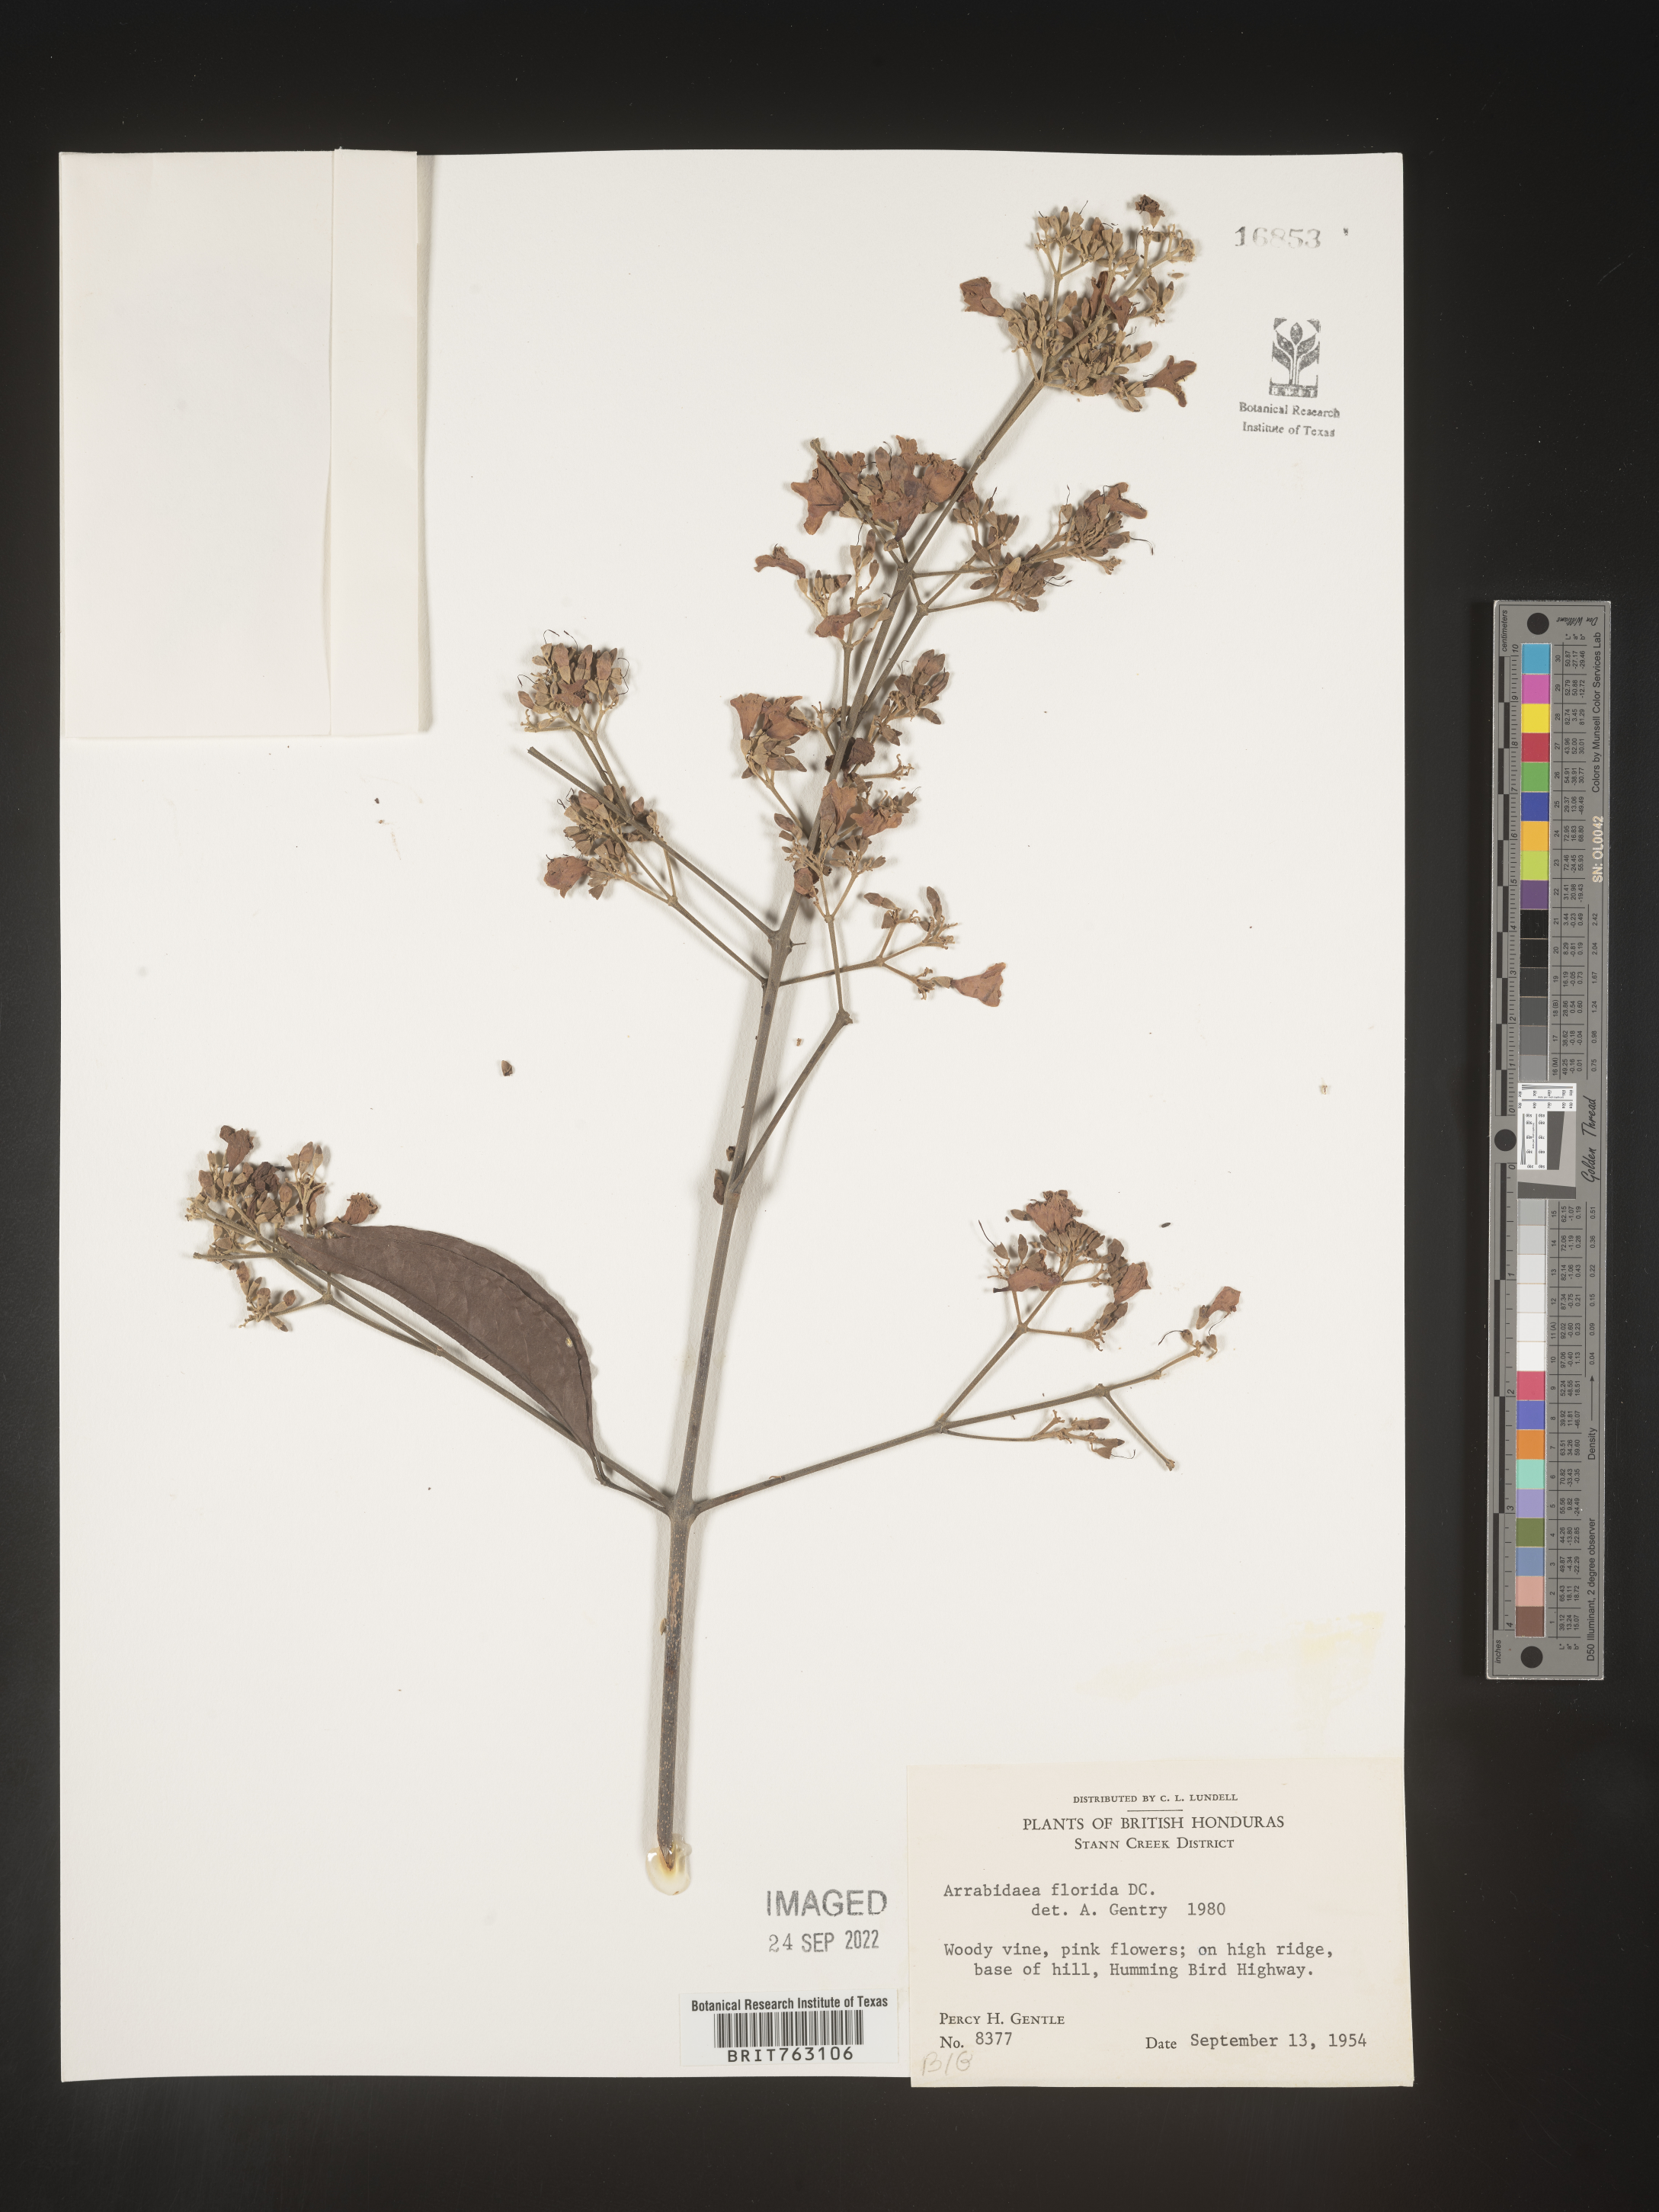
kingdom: Plantae
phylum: Tracheophyta
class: Magnoliopsida
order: Rosales
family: Rhamnaceae
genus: Arrabidaea
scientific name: Arrabidaea
